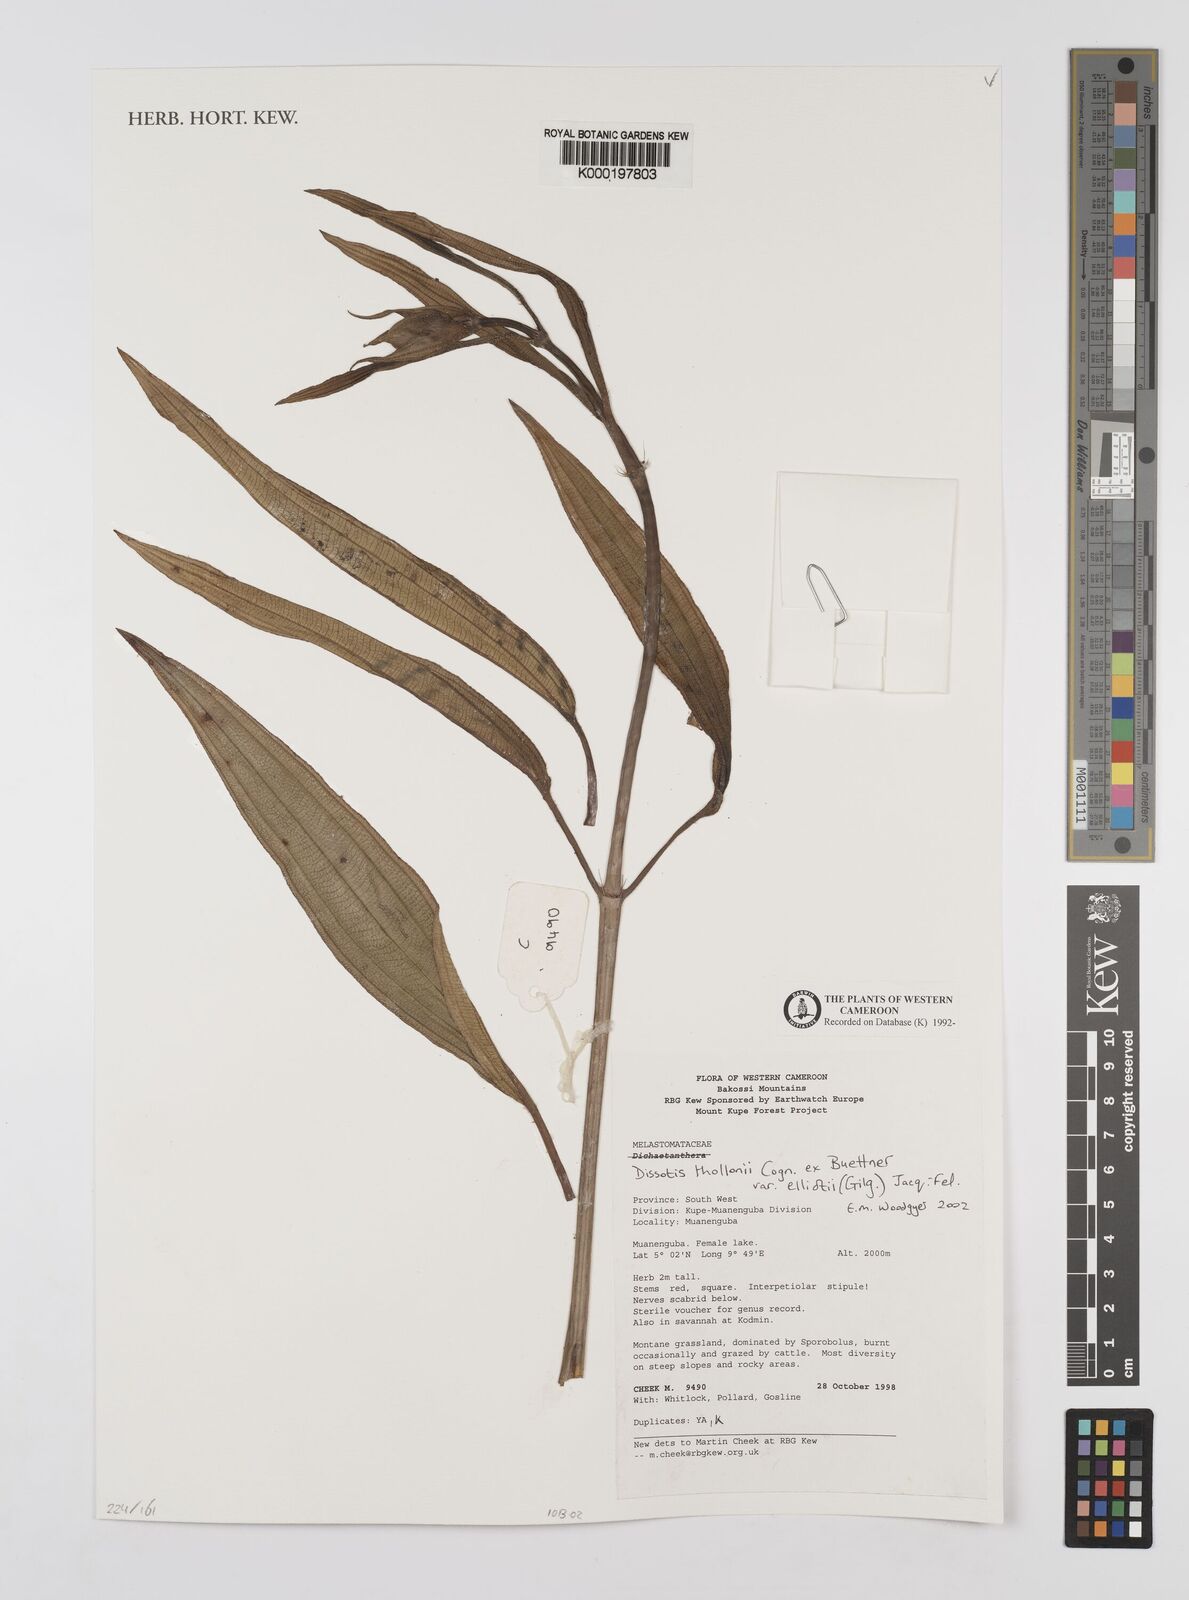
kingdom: Plantae
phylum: Tracheophyta
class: Magnoliopsida
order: Myrtales
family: Melastomataceae
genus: Dissotis
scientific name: Dissotis
